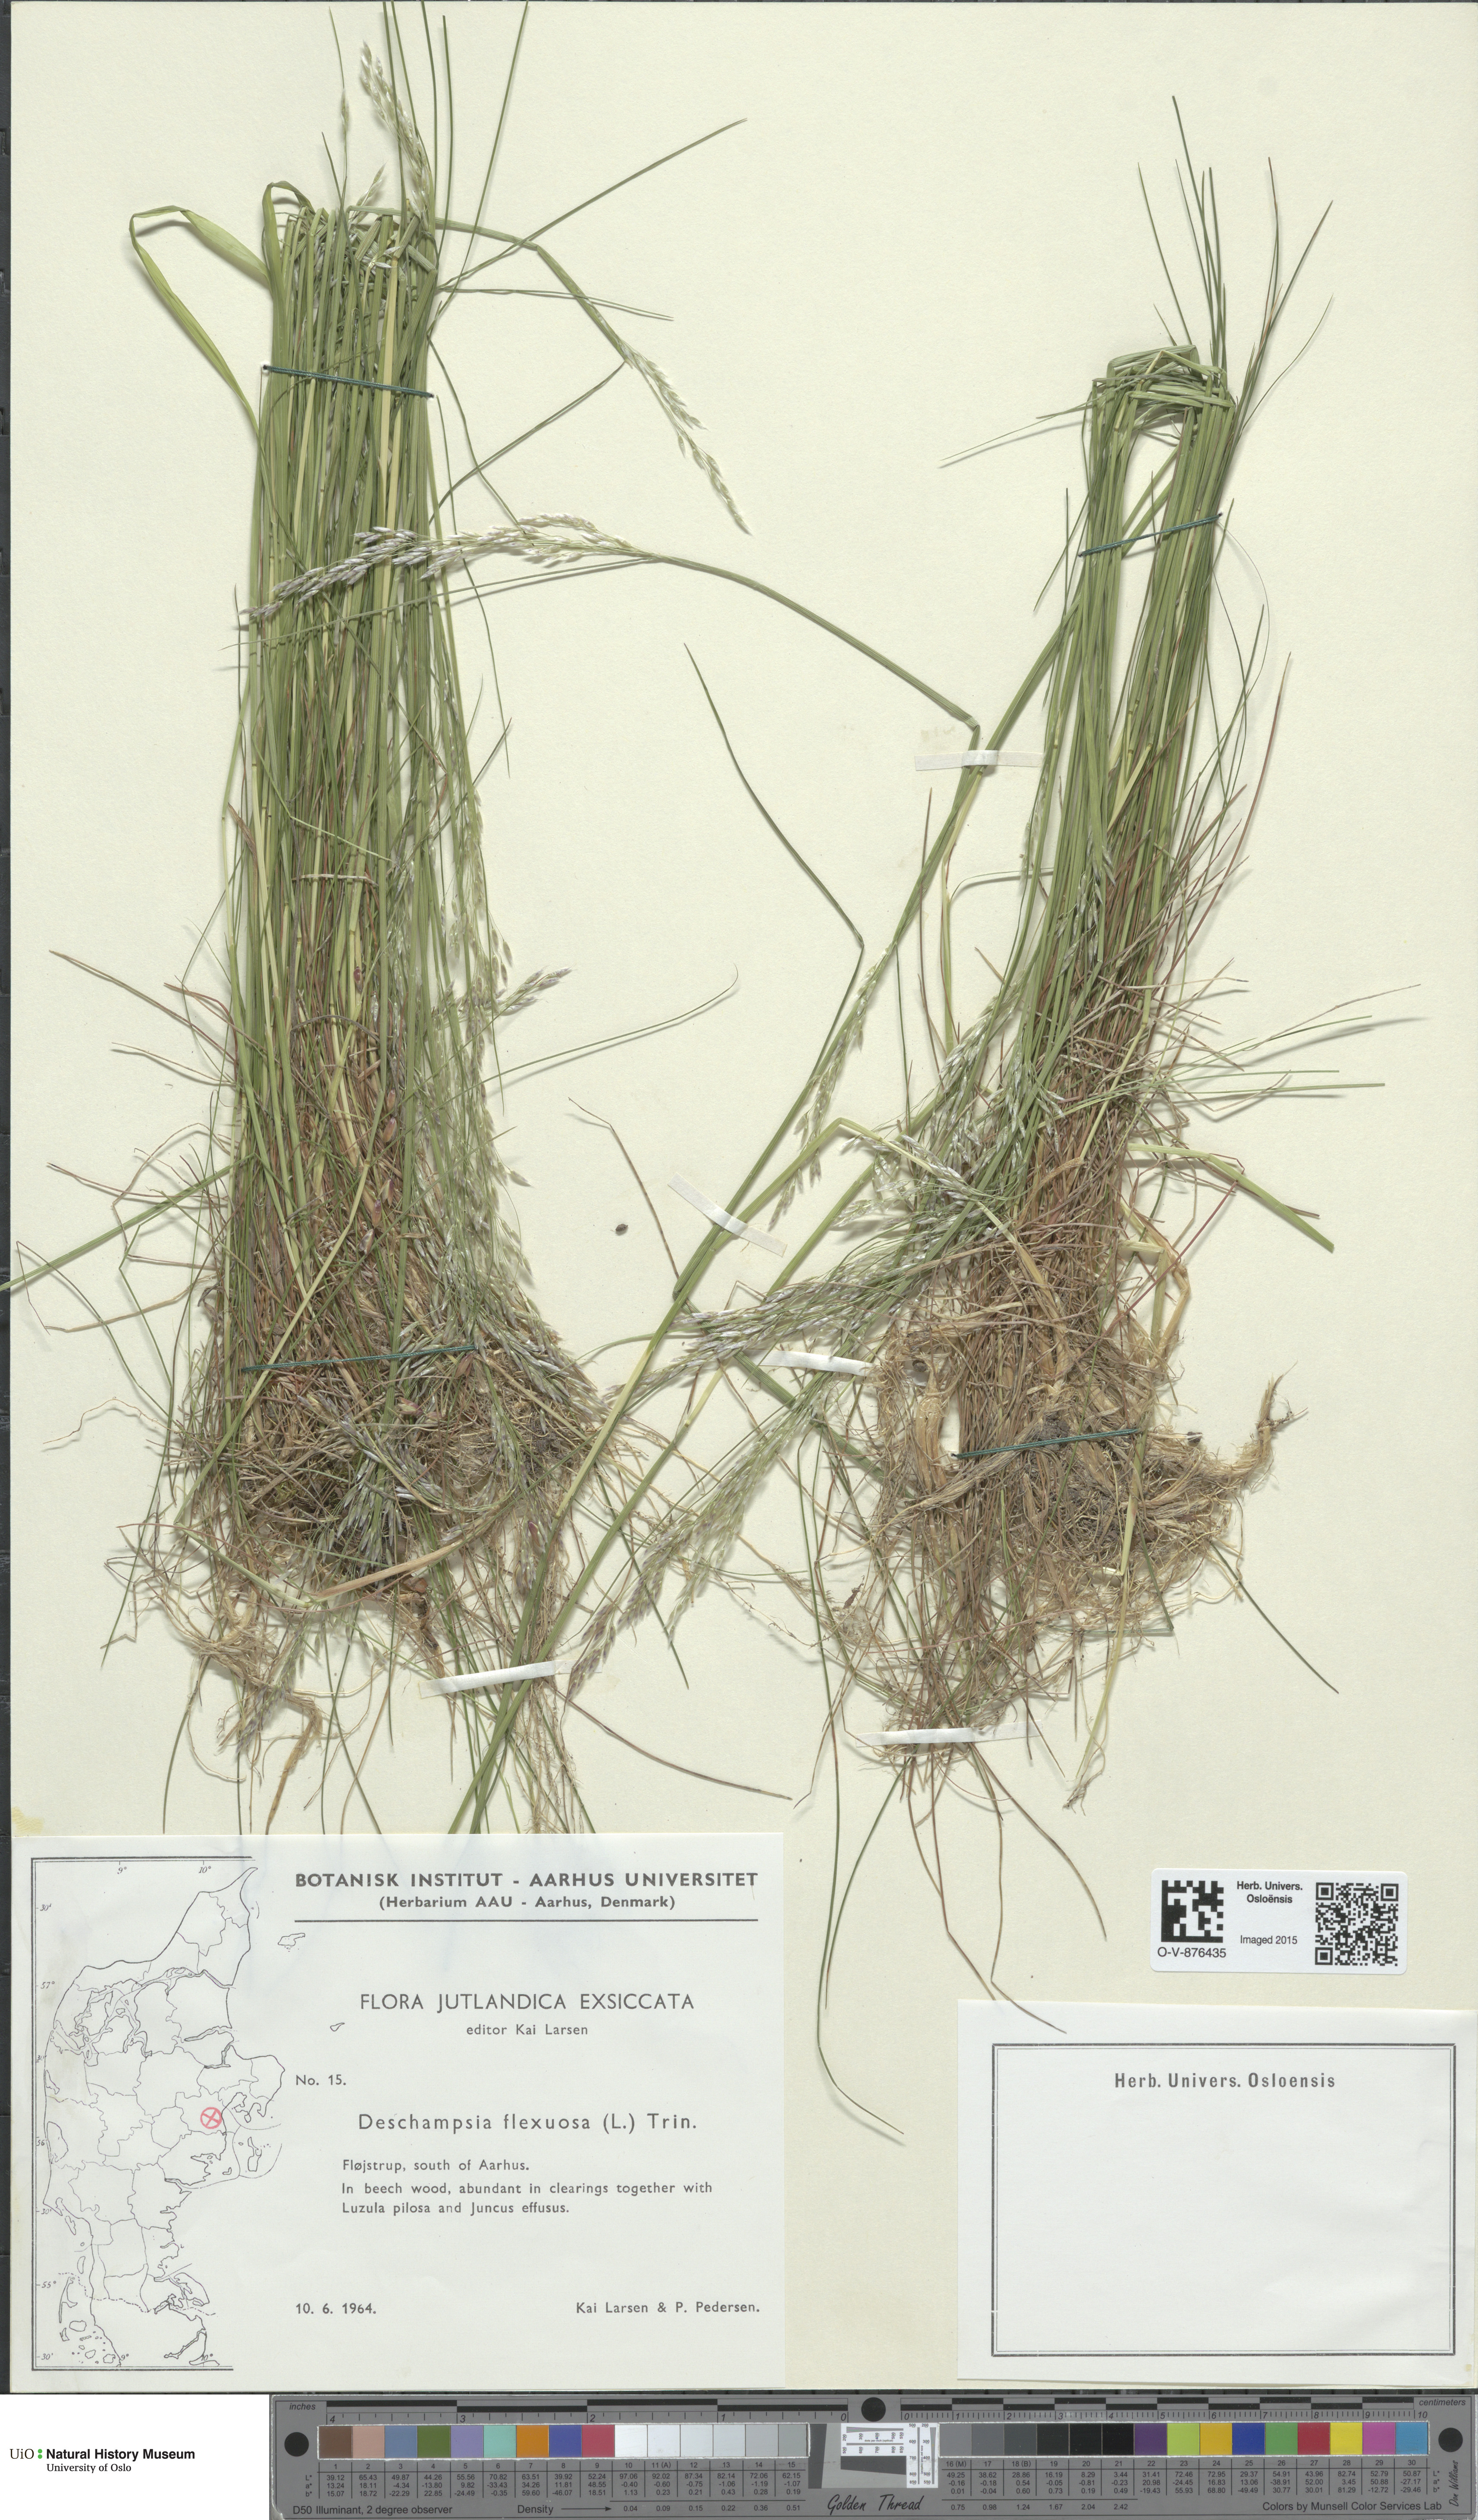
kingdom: Plantae
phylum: Tracheophyta
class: Liliopsida
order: Poales
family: Poaceae
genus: Avenella
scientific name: Avenella flexuosa
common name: Wavy hairgrass
